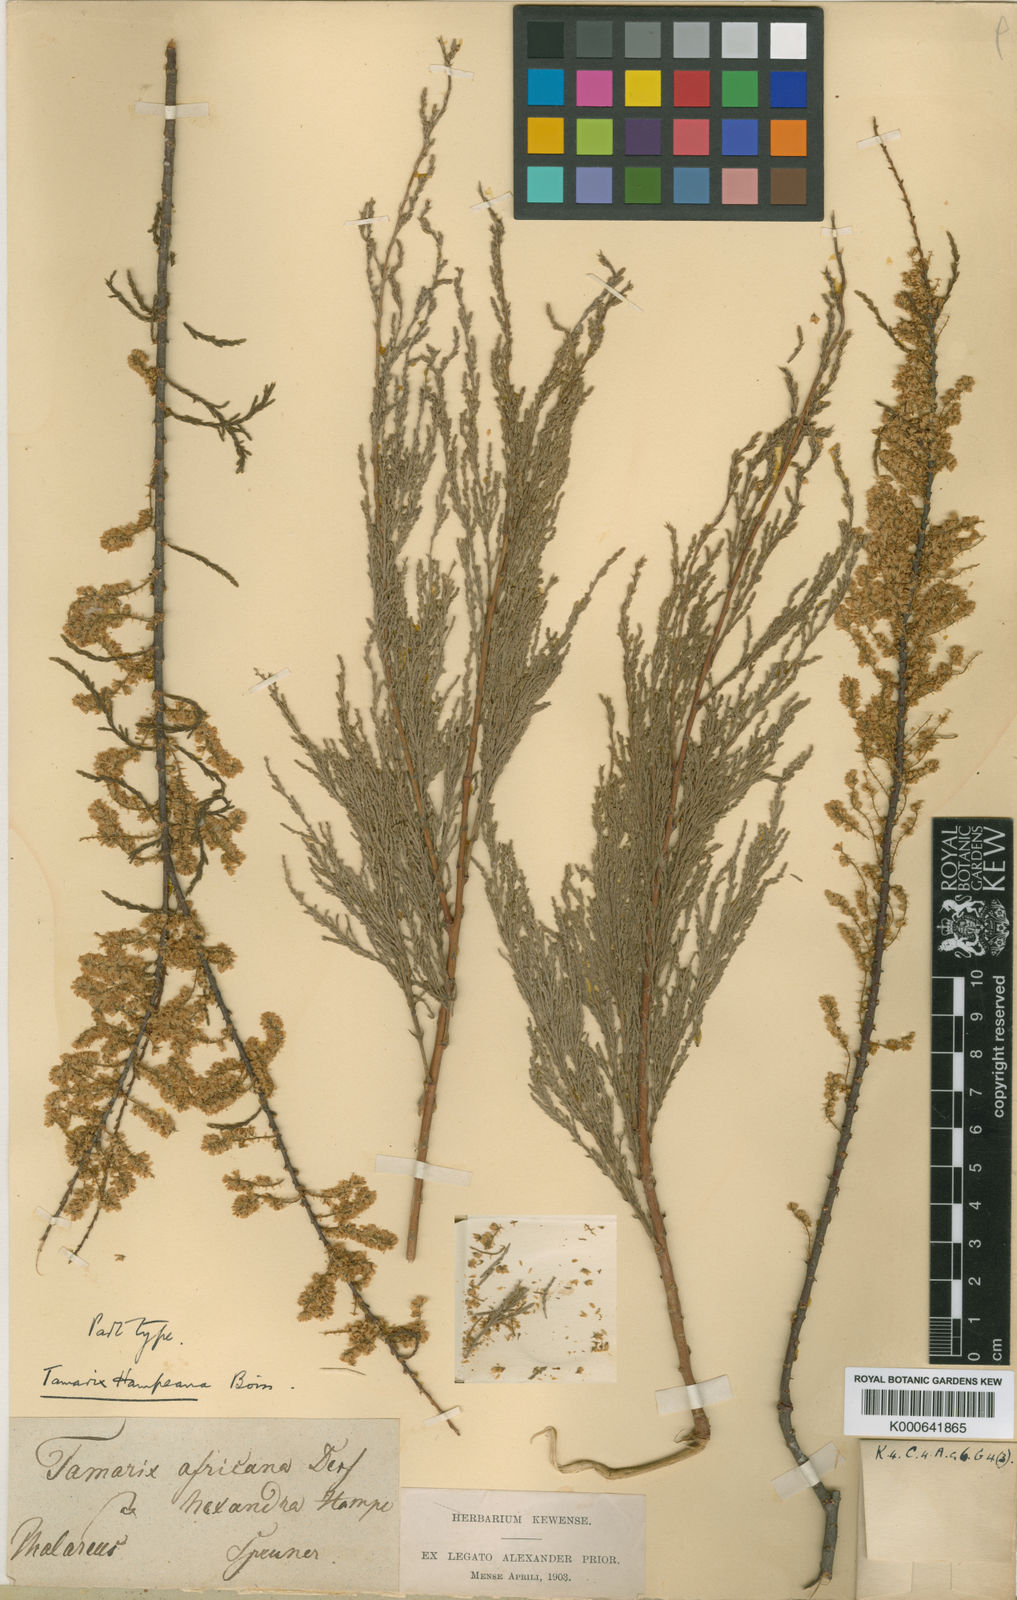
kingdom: Plantae
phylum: Tracheophyta
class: Magnoliopsida
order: Caryophyllales
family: Tamaricaceae
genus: Tamarix
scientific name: Tamarix hampeana
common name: Hampe’s tamarisk
